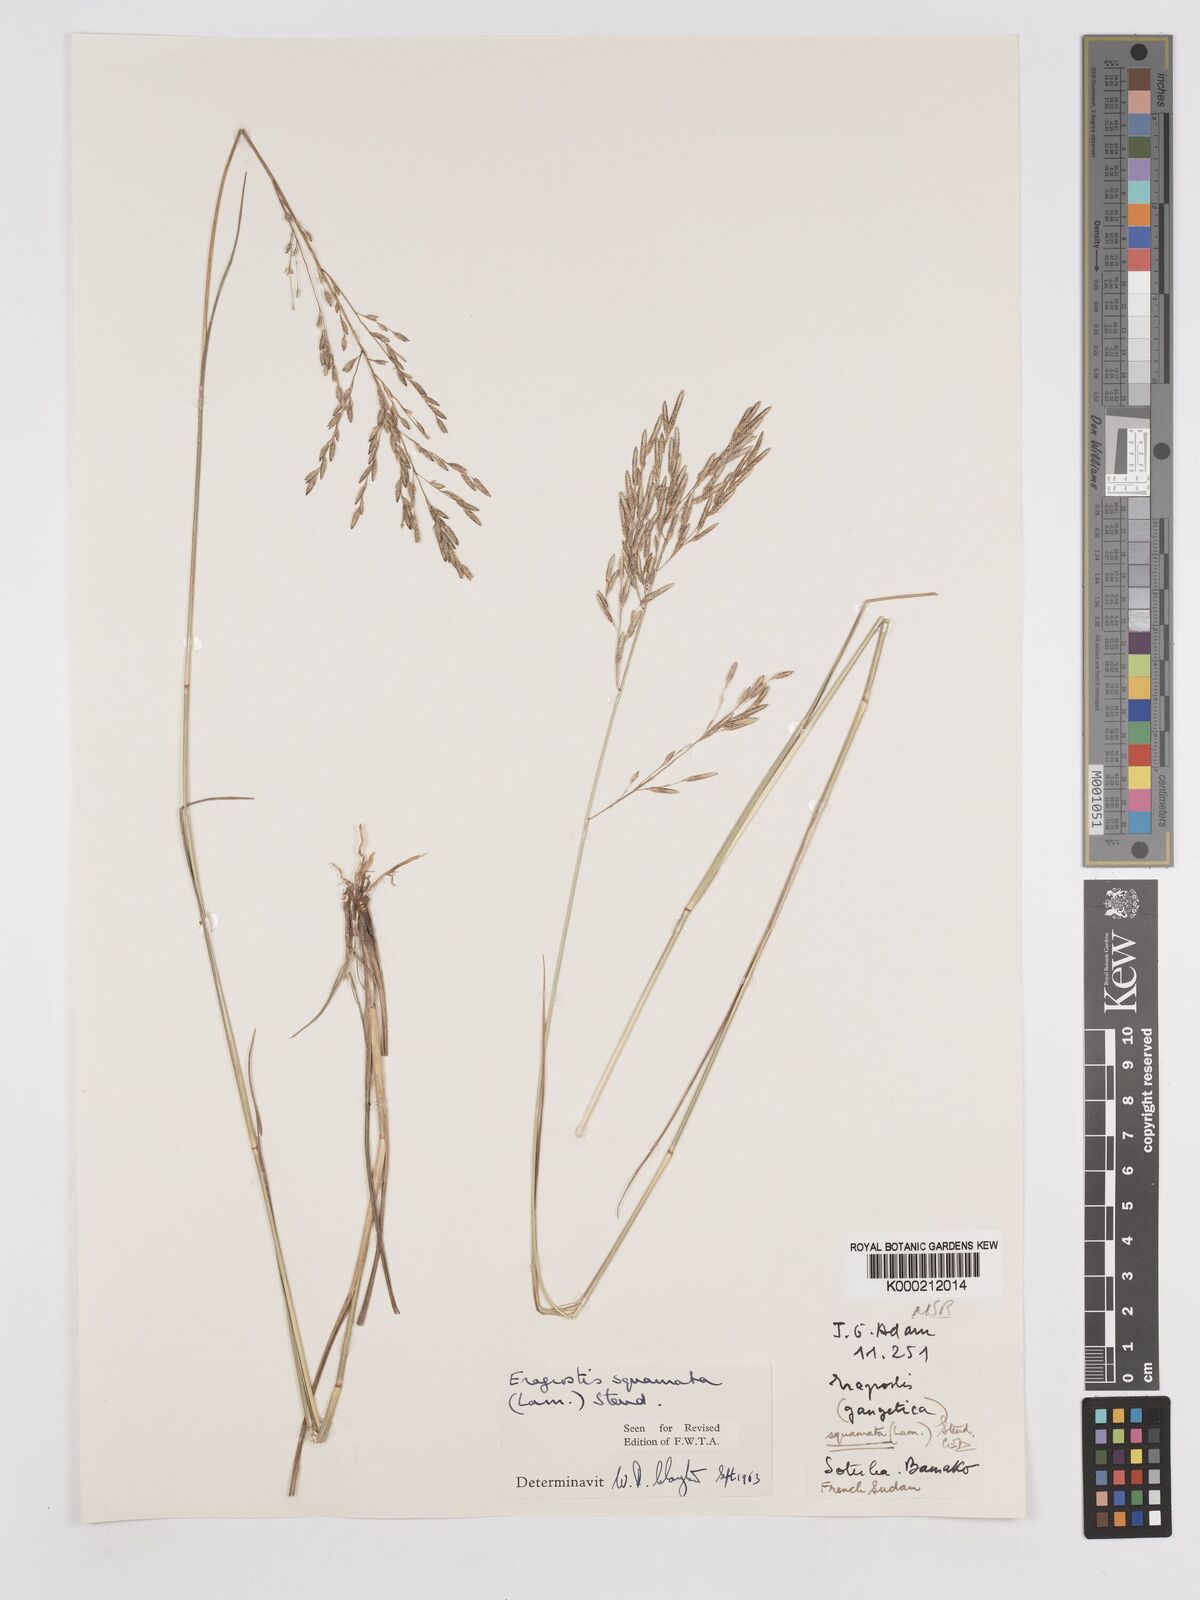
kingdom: Plantae
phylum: Tracheophyta
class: Liliopsida
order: Poales
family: Poaceae
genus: Eragrostis
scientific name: Eragrostis squamata
